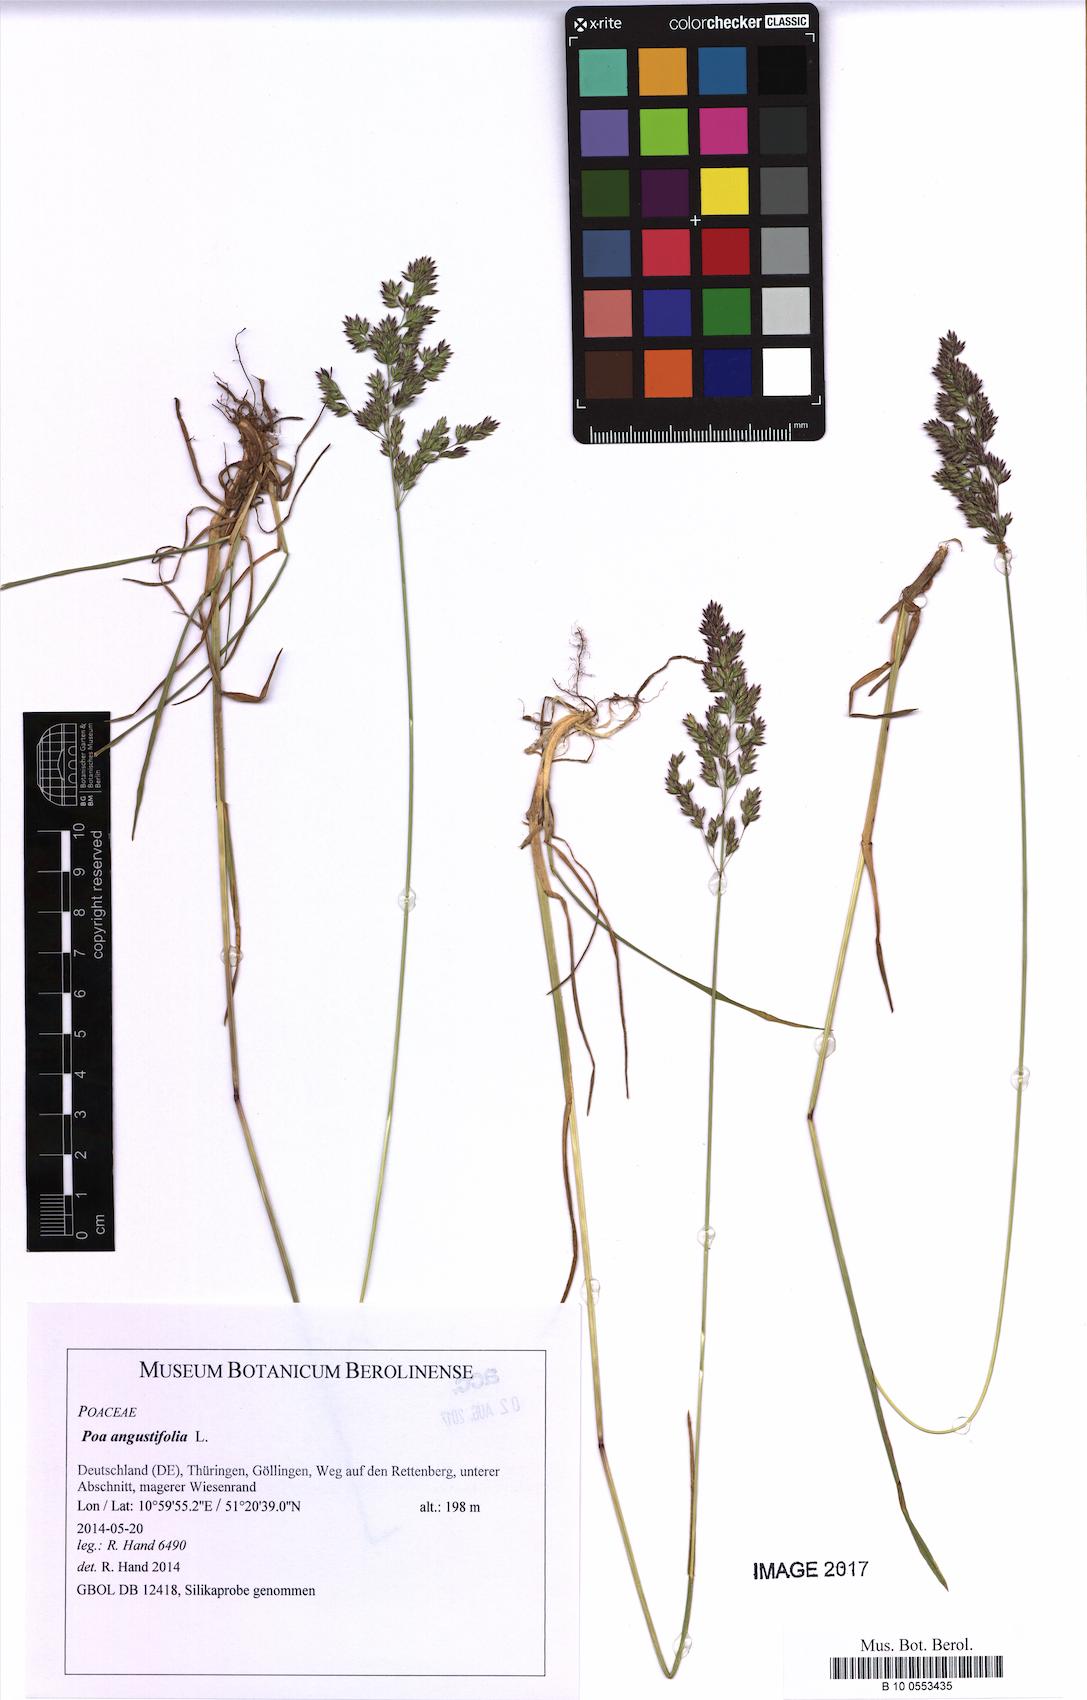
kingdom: Plantae
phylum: Tracheophyta
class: Liliopsida
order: Poales
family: Poaceae
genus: Poa
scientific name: Poa angustifolia
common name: Narrow-leaved meadow-grass
